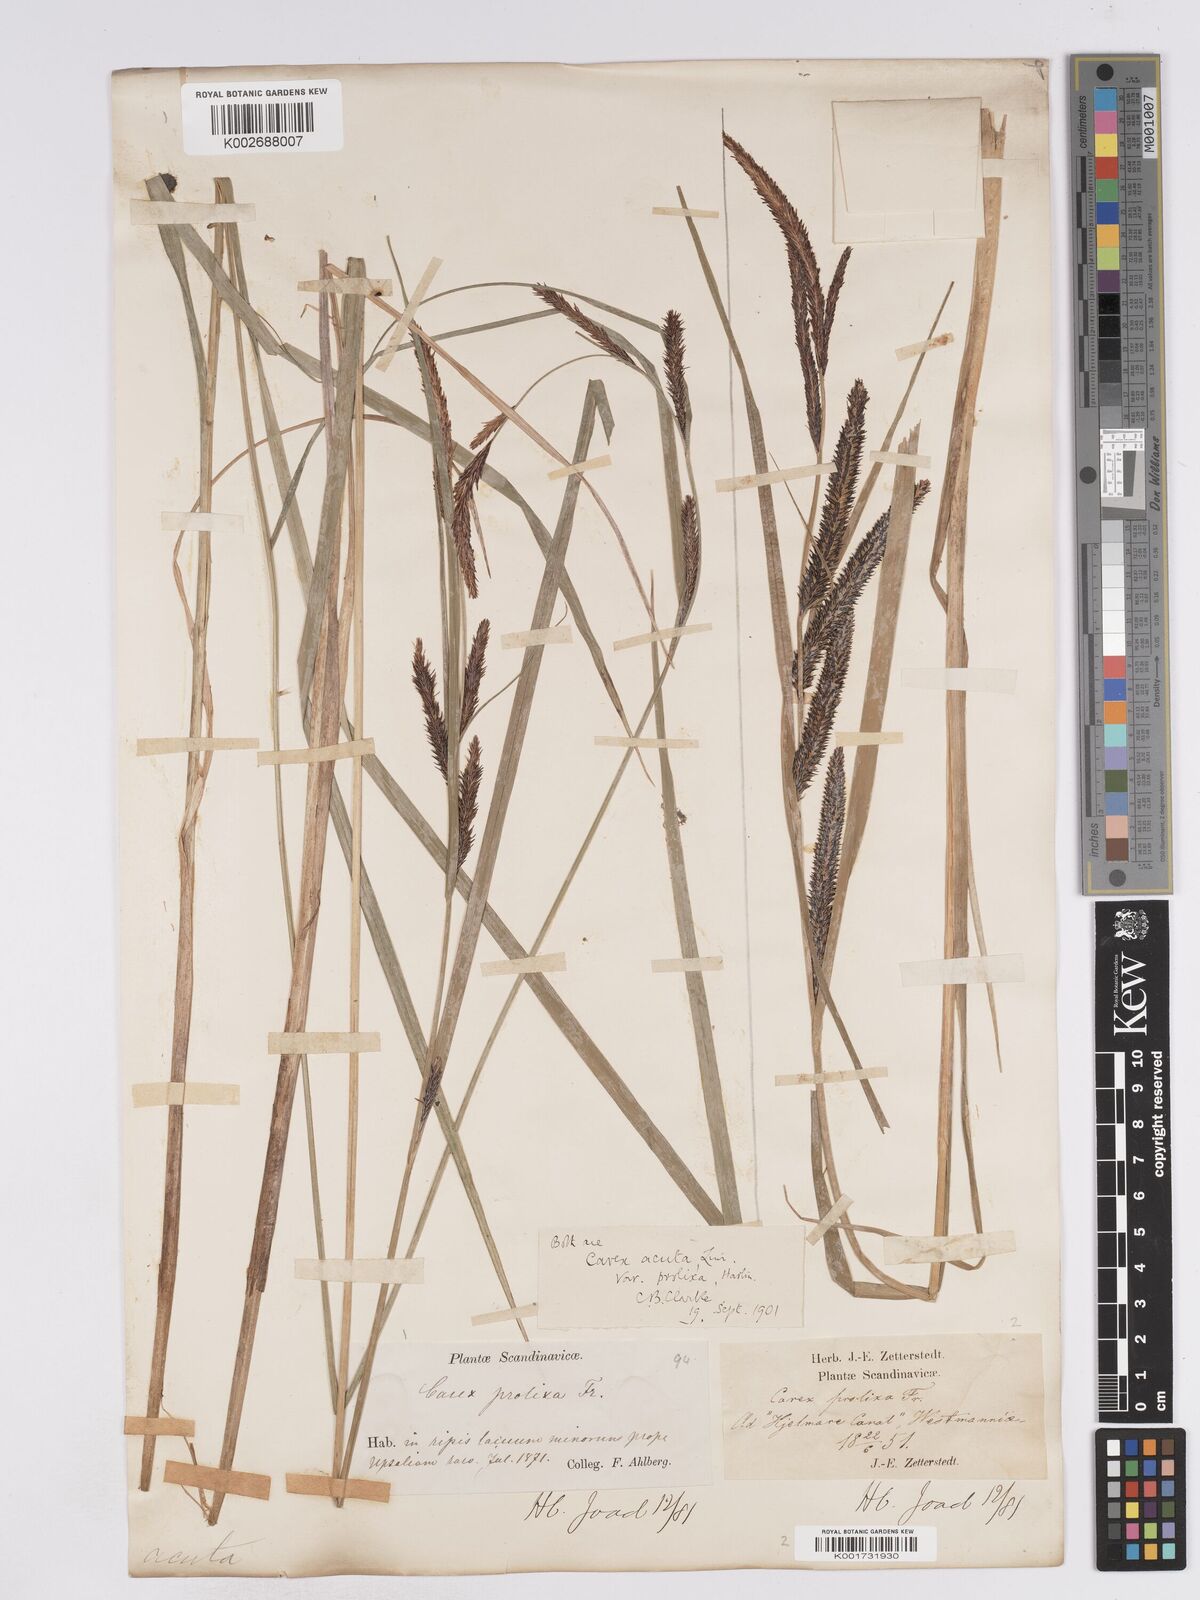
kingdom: Plantae
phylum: Tracheophyta
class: Liliopsida
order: Poales
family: Cyperaceae
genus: Carex
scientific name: Carex acuta
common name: Slender tufted-sedge
